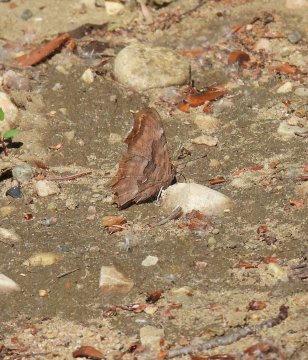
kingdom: Animalia
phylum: Arthropoda
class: Insecta
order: Lepidoptera
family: Nymphalidae
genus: Polygonia
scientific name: Polygonia satyrus
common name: Satyr Comma
